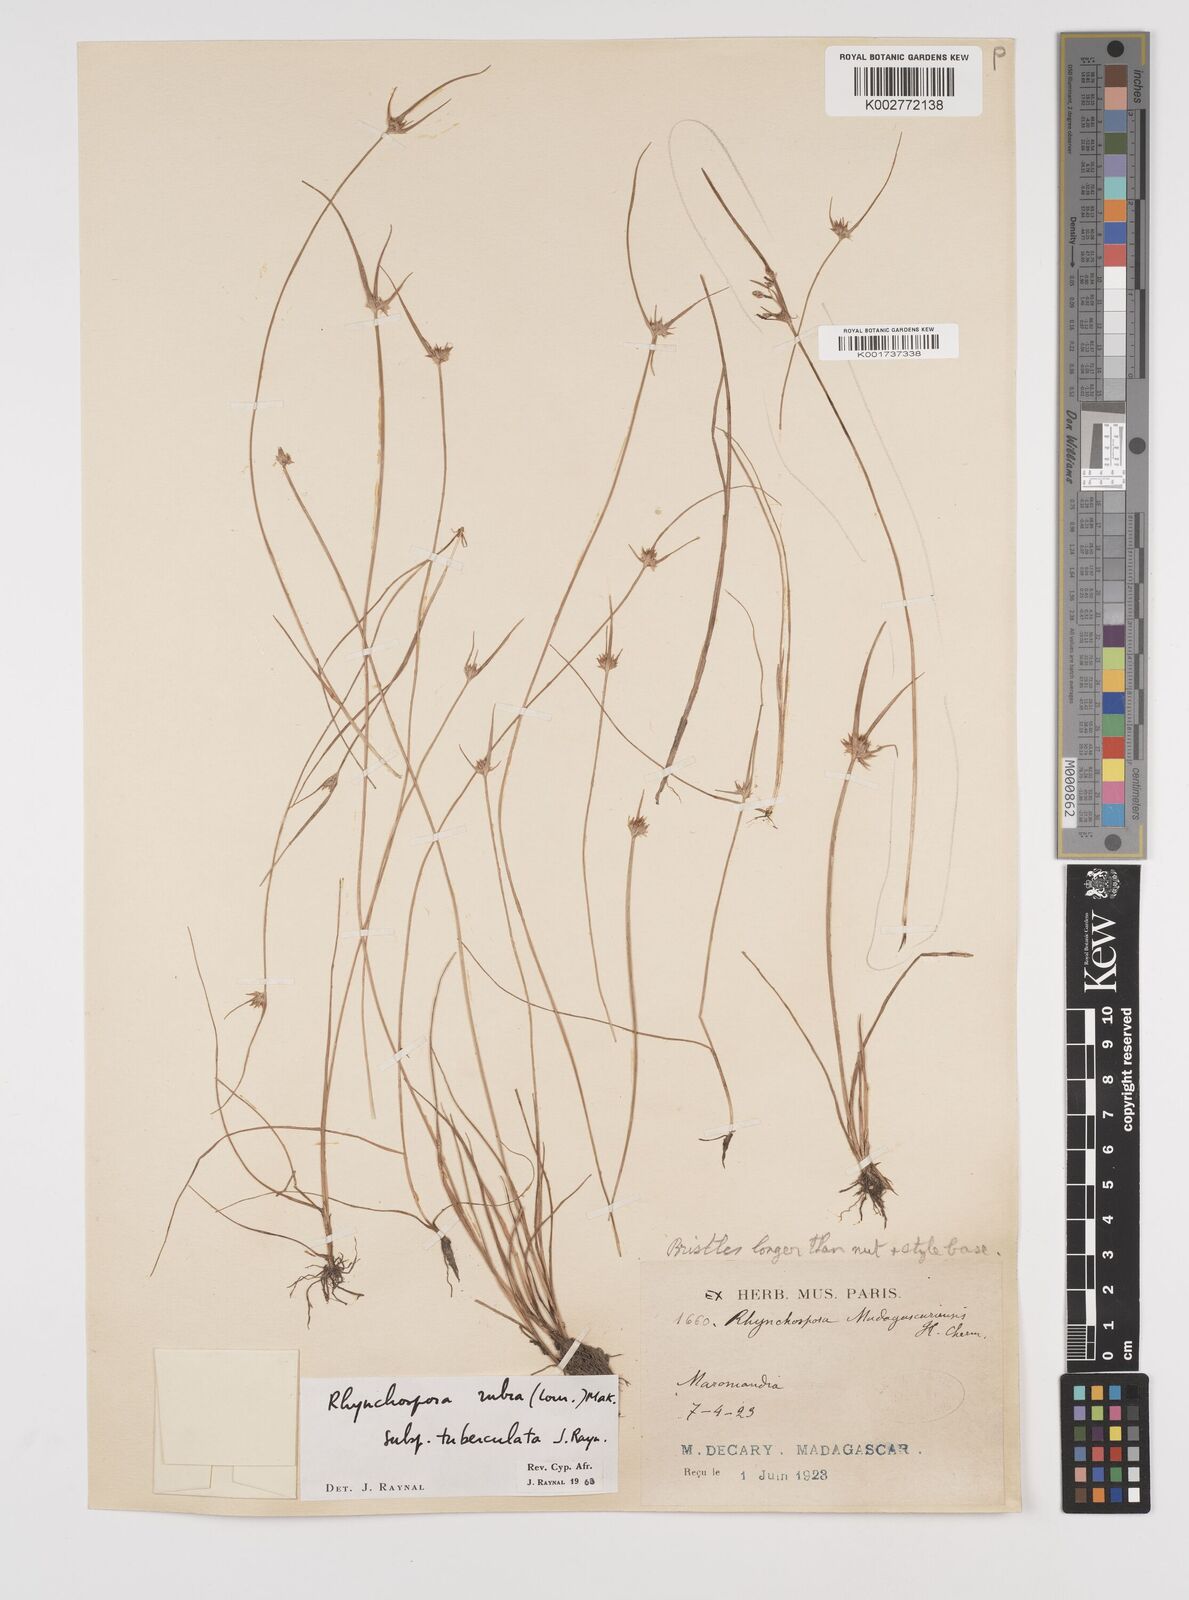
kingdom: Plantae
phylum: Tracheophyta
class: Liliopsida
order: Poales
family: Cyperaceae
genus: Rhynchospora
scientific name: Rhynchospora rubra
